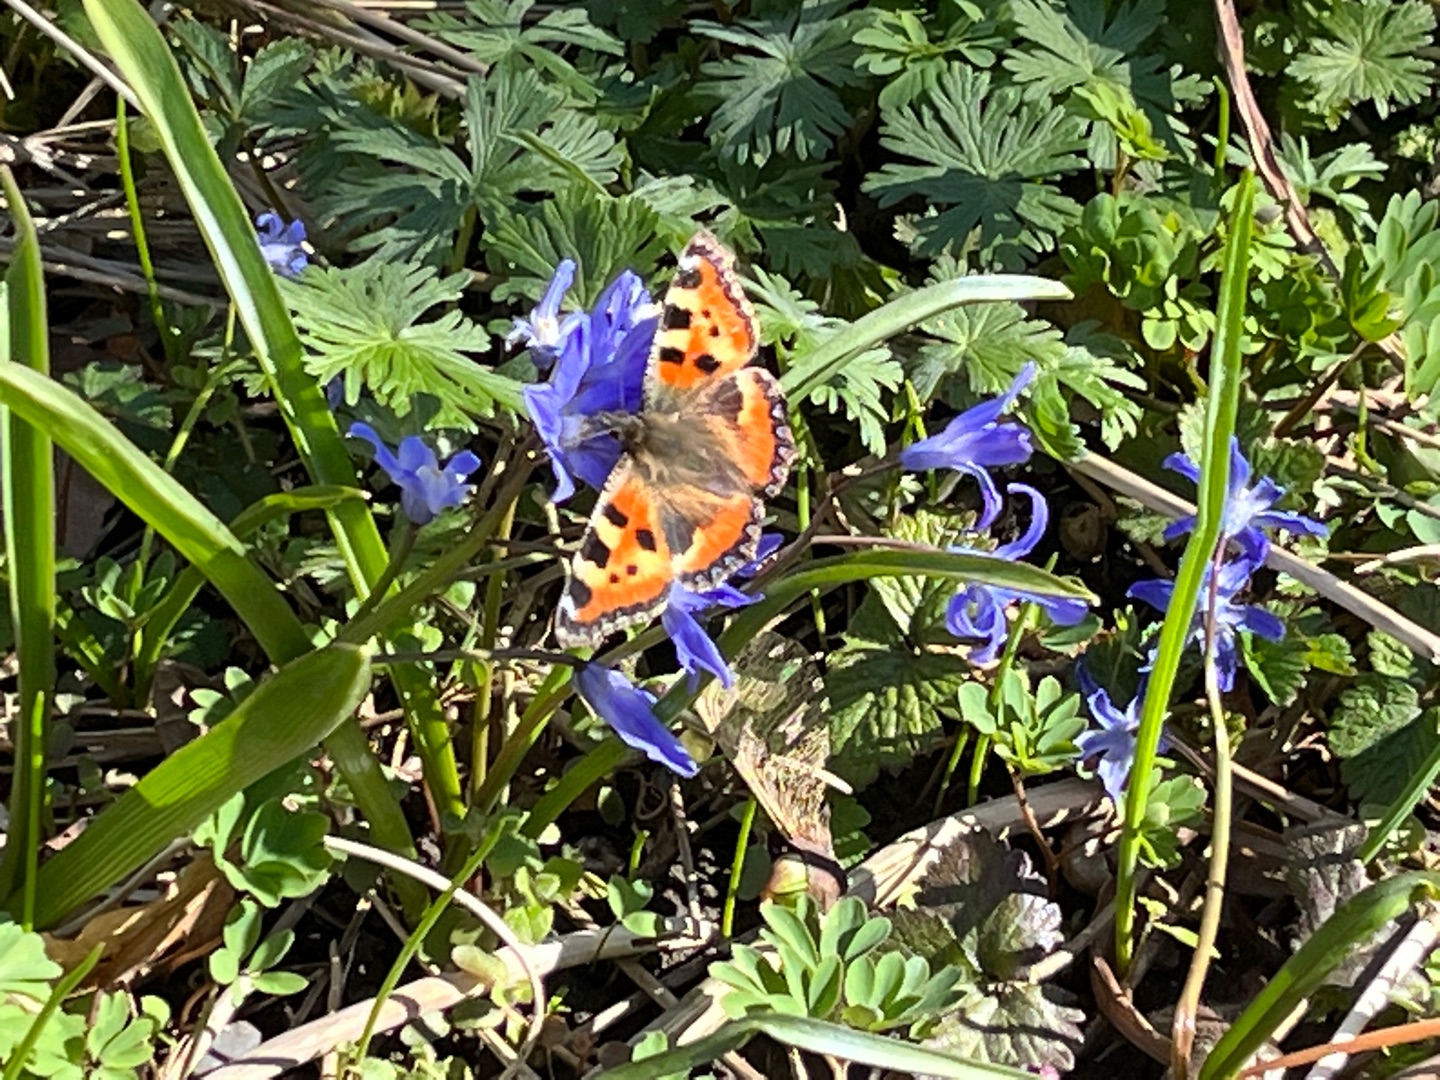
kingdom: Animalia
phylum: Arthropoda
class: Insecta
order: Lepidoptera
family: Nymphalidae
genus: Aglais
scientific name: Aglais urticae
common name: Nældens takvinge
